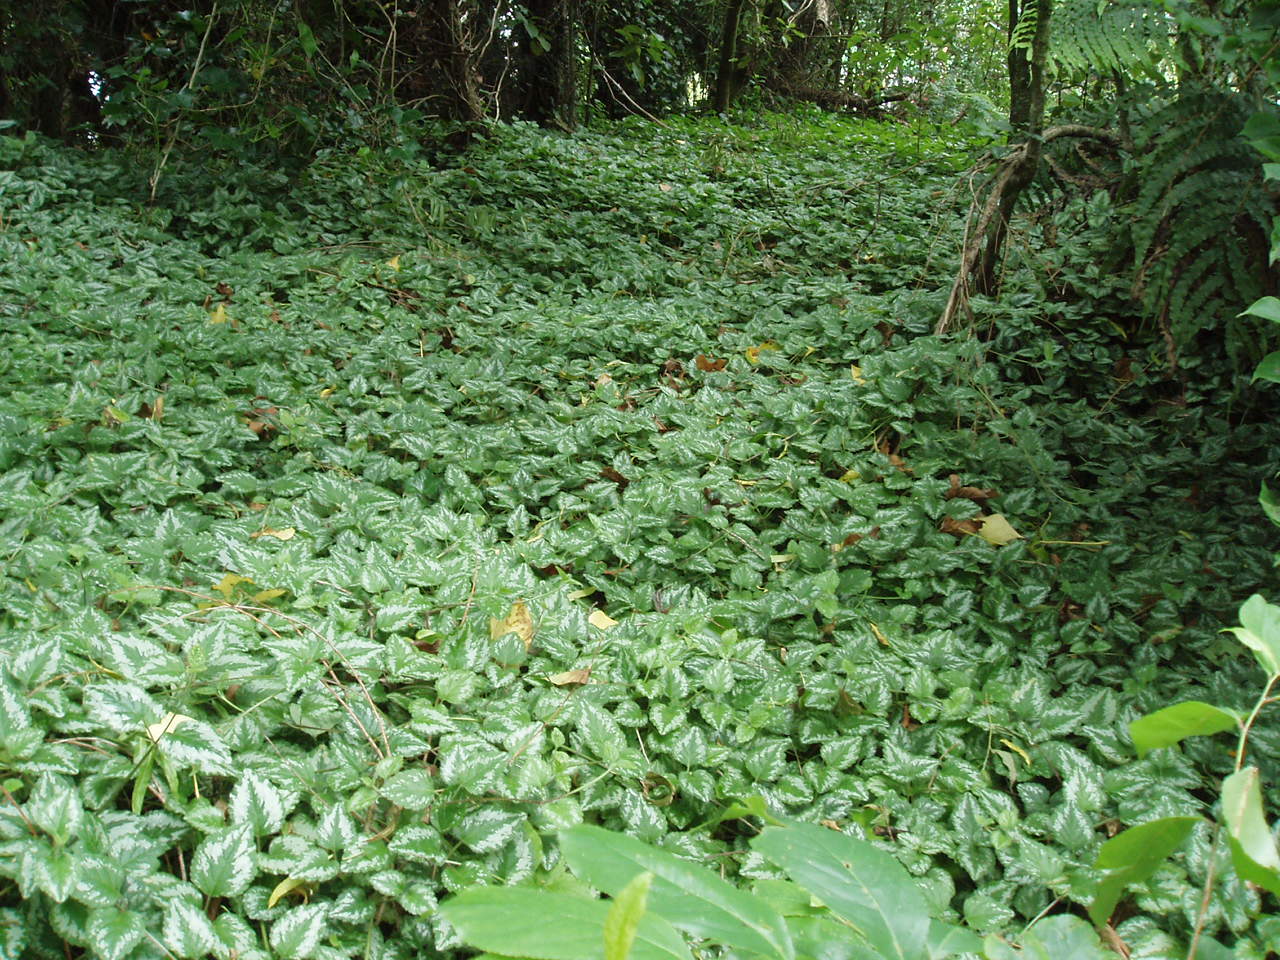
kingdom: Plantae
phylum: Tracheophyta
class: Magnoliopsida
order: Lamiales
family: Lamiaceae
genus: Lamium
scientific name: Lamium galeobdolon
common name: Yellow archangel
